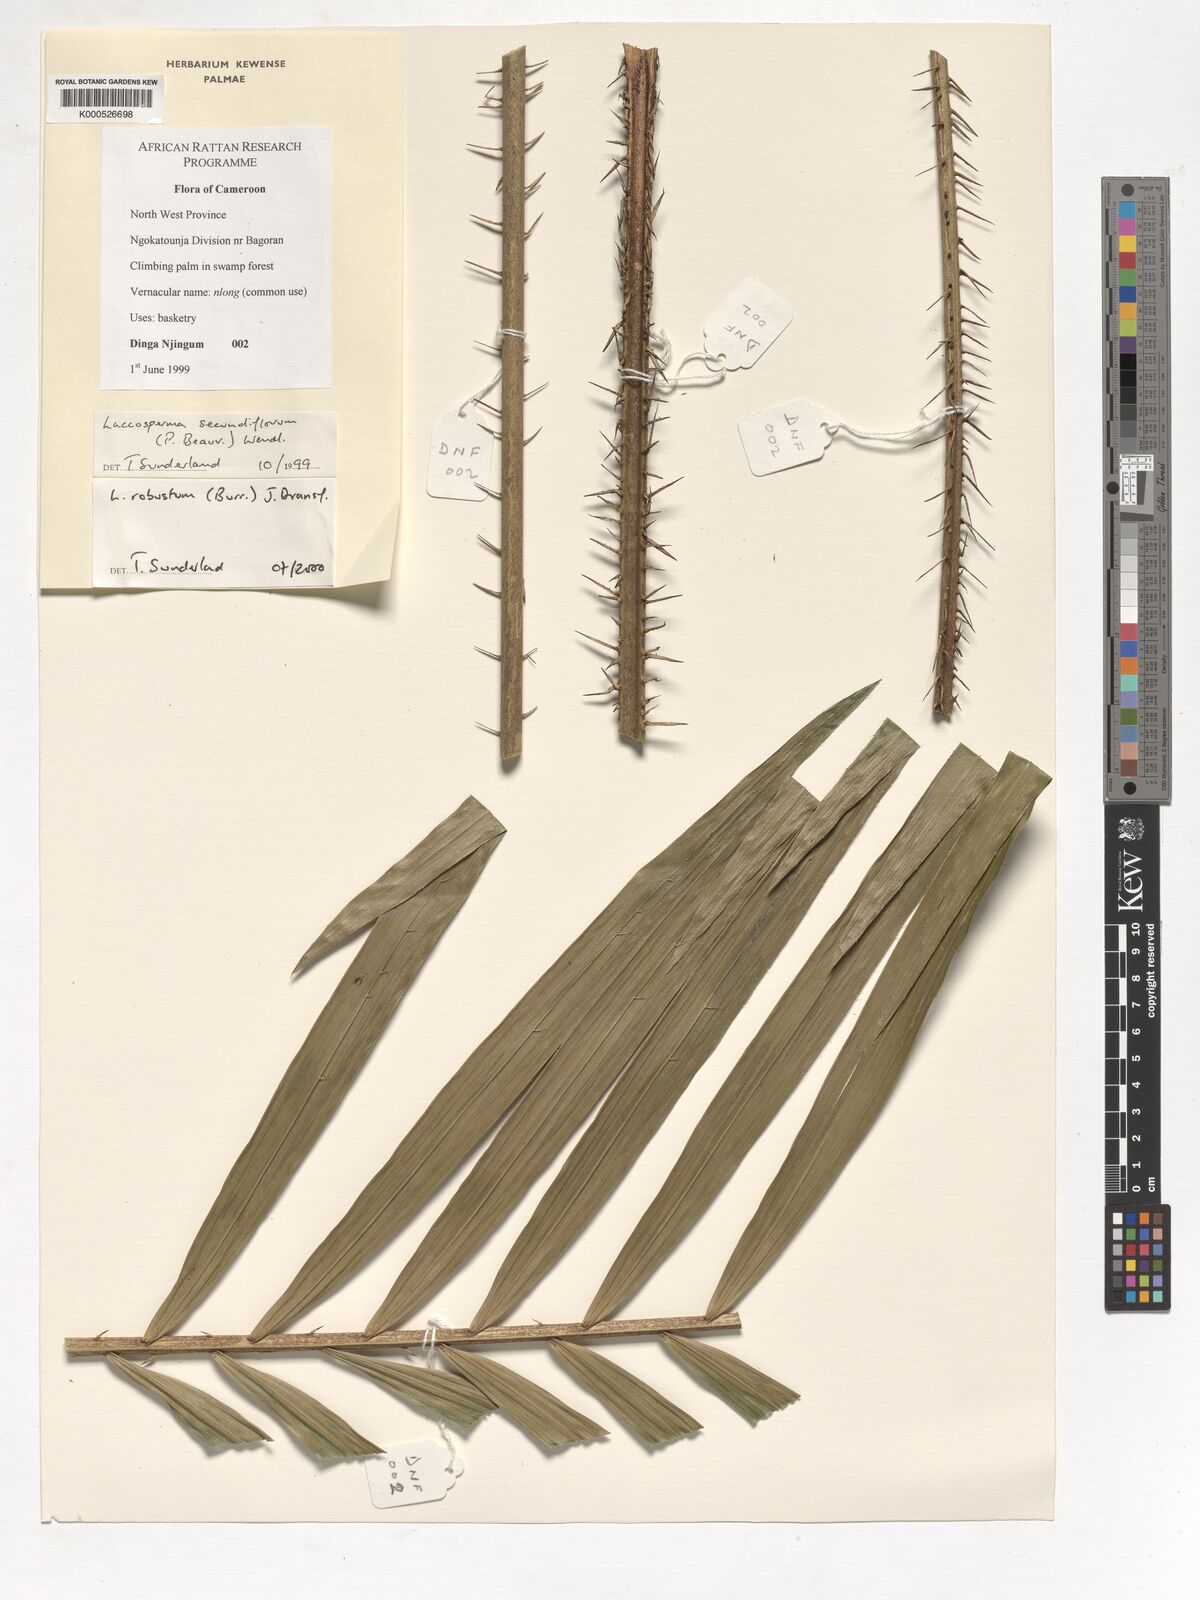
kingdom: Plantae
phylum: Tracheophyta
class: Liliopsida
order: Arecales
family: Arecaceae
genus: Laccosperma
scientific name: Laccosperma robustum
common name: Rattan
